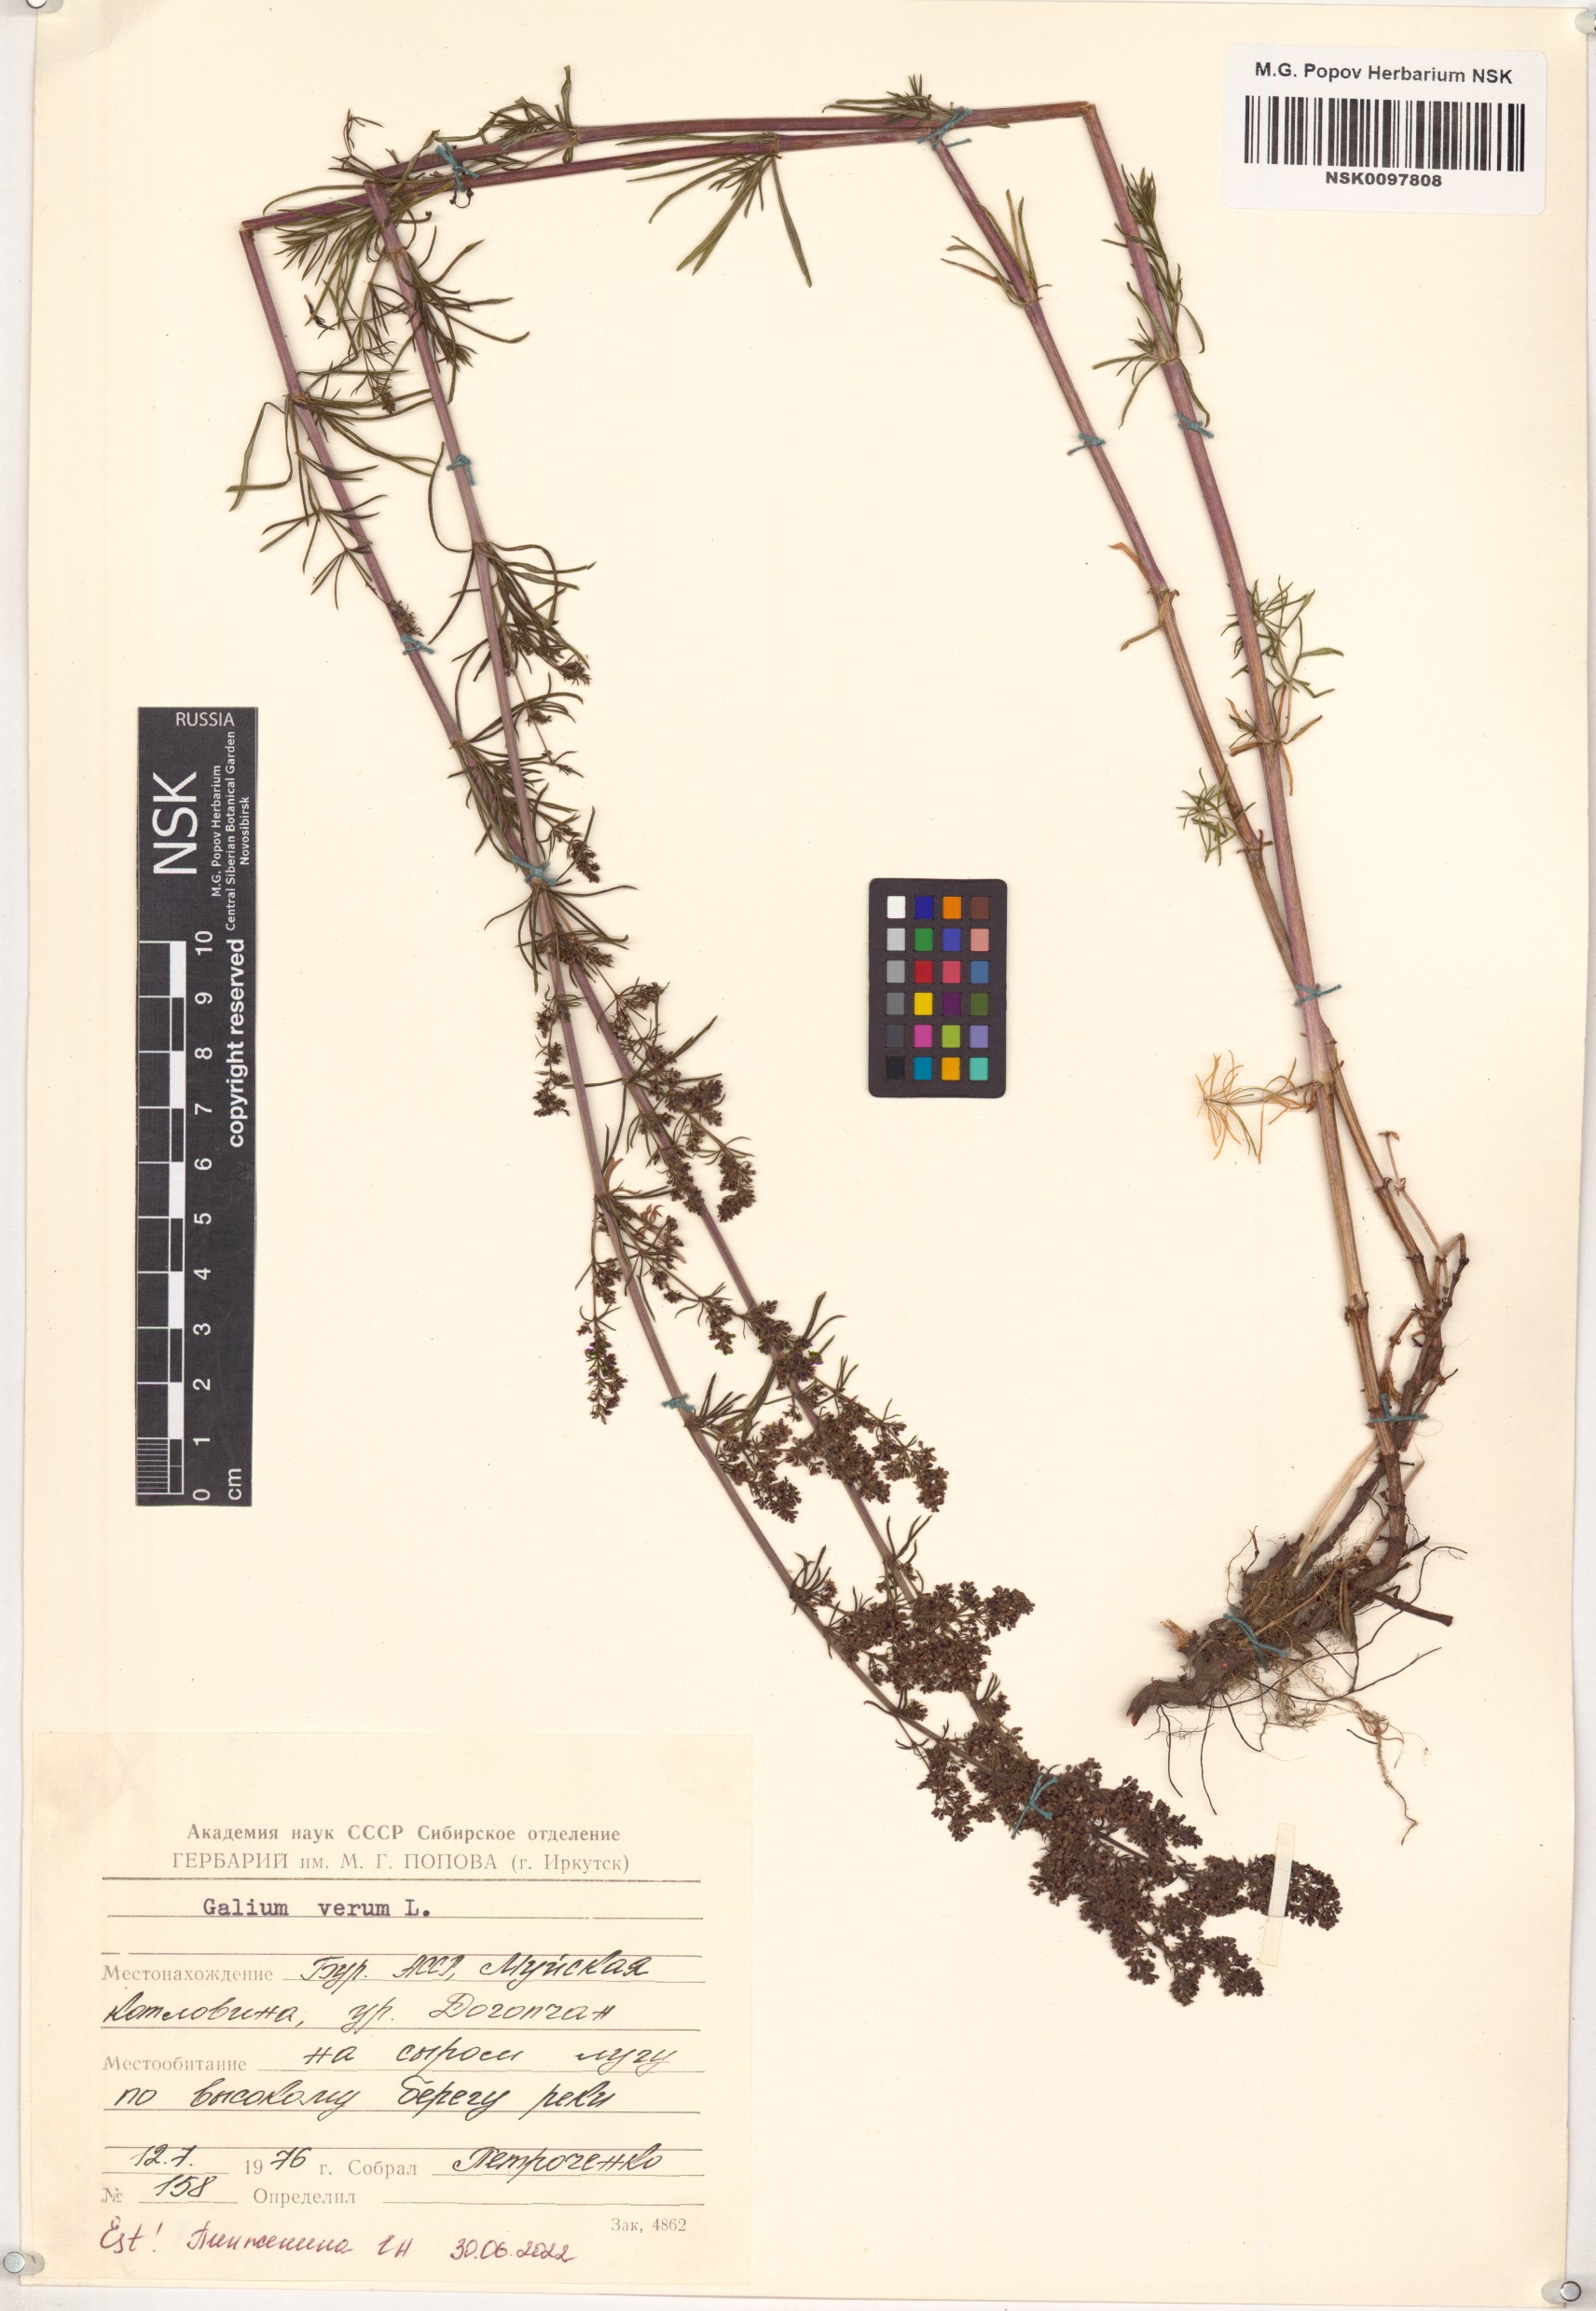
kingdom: Plantae
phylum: Tracheophyta
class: Magnoliopsida
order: Gentianales
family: Rubiaceae
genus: Galium
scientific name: Galium verum
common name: Lady's bedstraw
